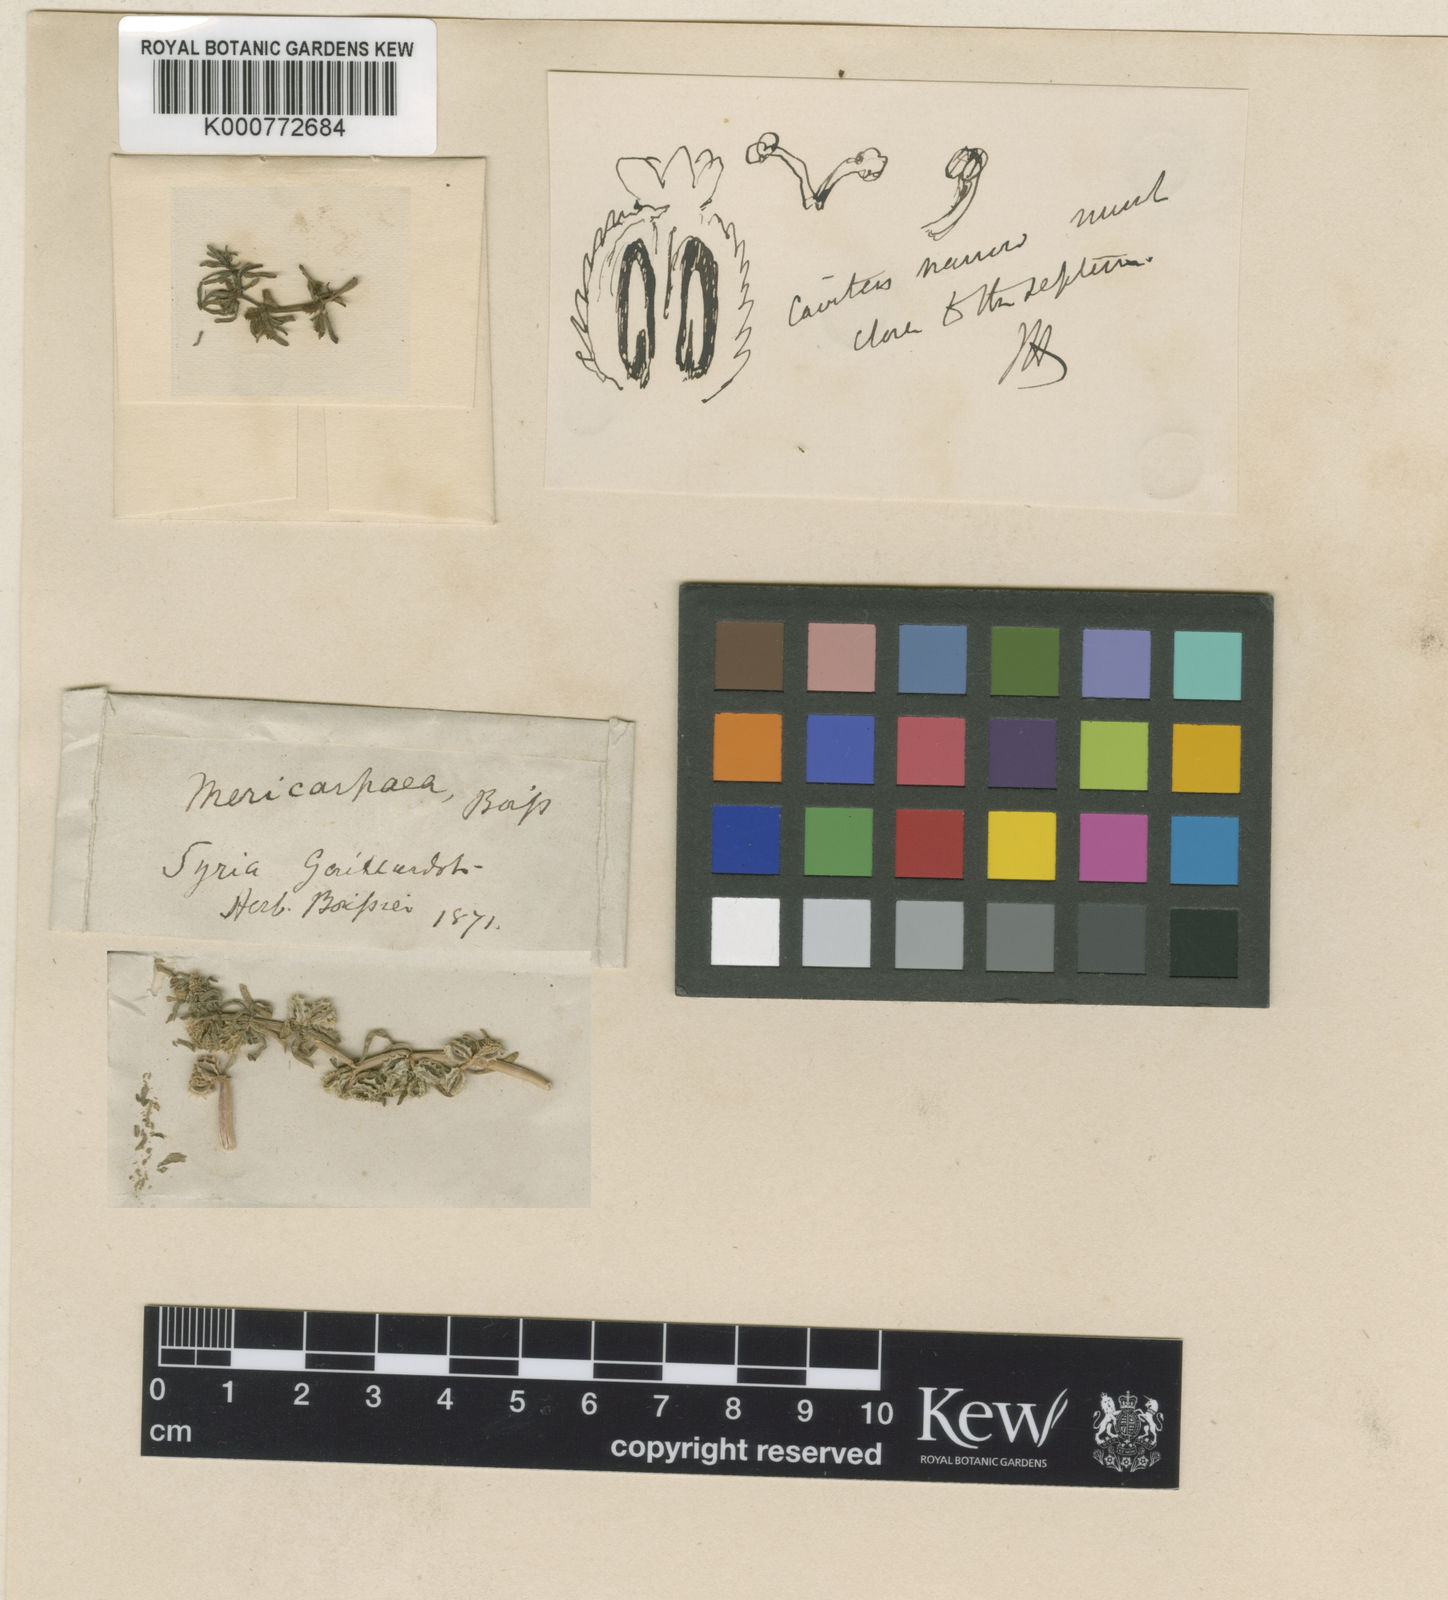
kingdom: Plantae
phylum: Tracheophyta
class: Magnoliopsida
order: Gentianales
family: Rubiaceae
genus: Mericarpaea
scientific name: Mericarpaea ciliata
